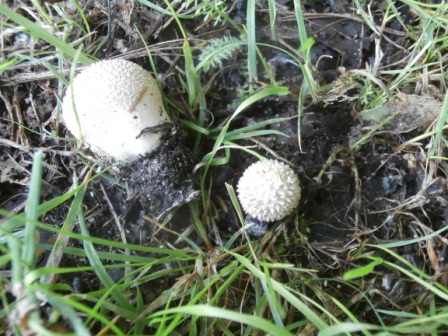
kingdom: Fungi
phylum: Basidiomycota
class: Agaricomycetes
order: Agaricales
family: Lycoperdaceae
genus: Lycoperdon
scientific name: Lycoperdon pratense
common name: flad støvbold
